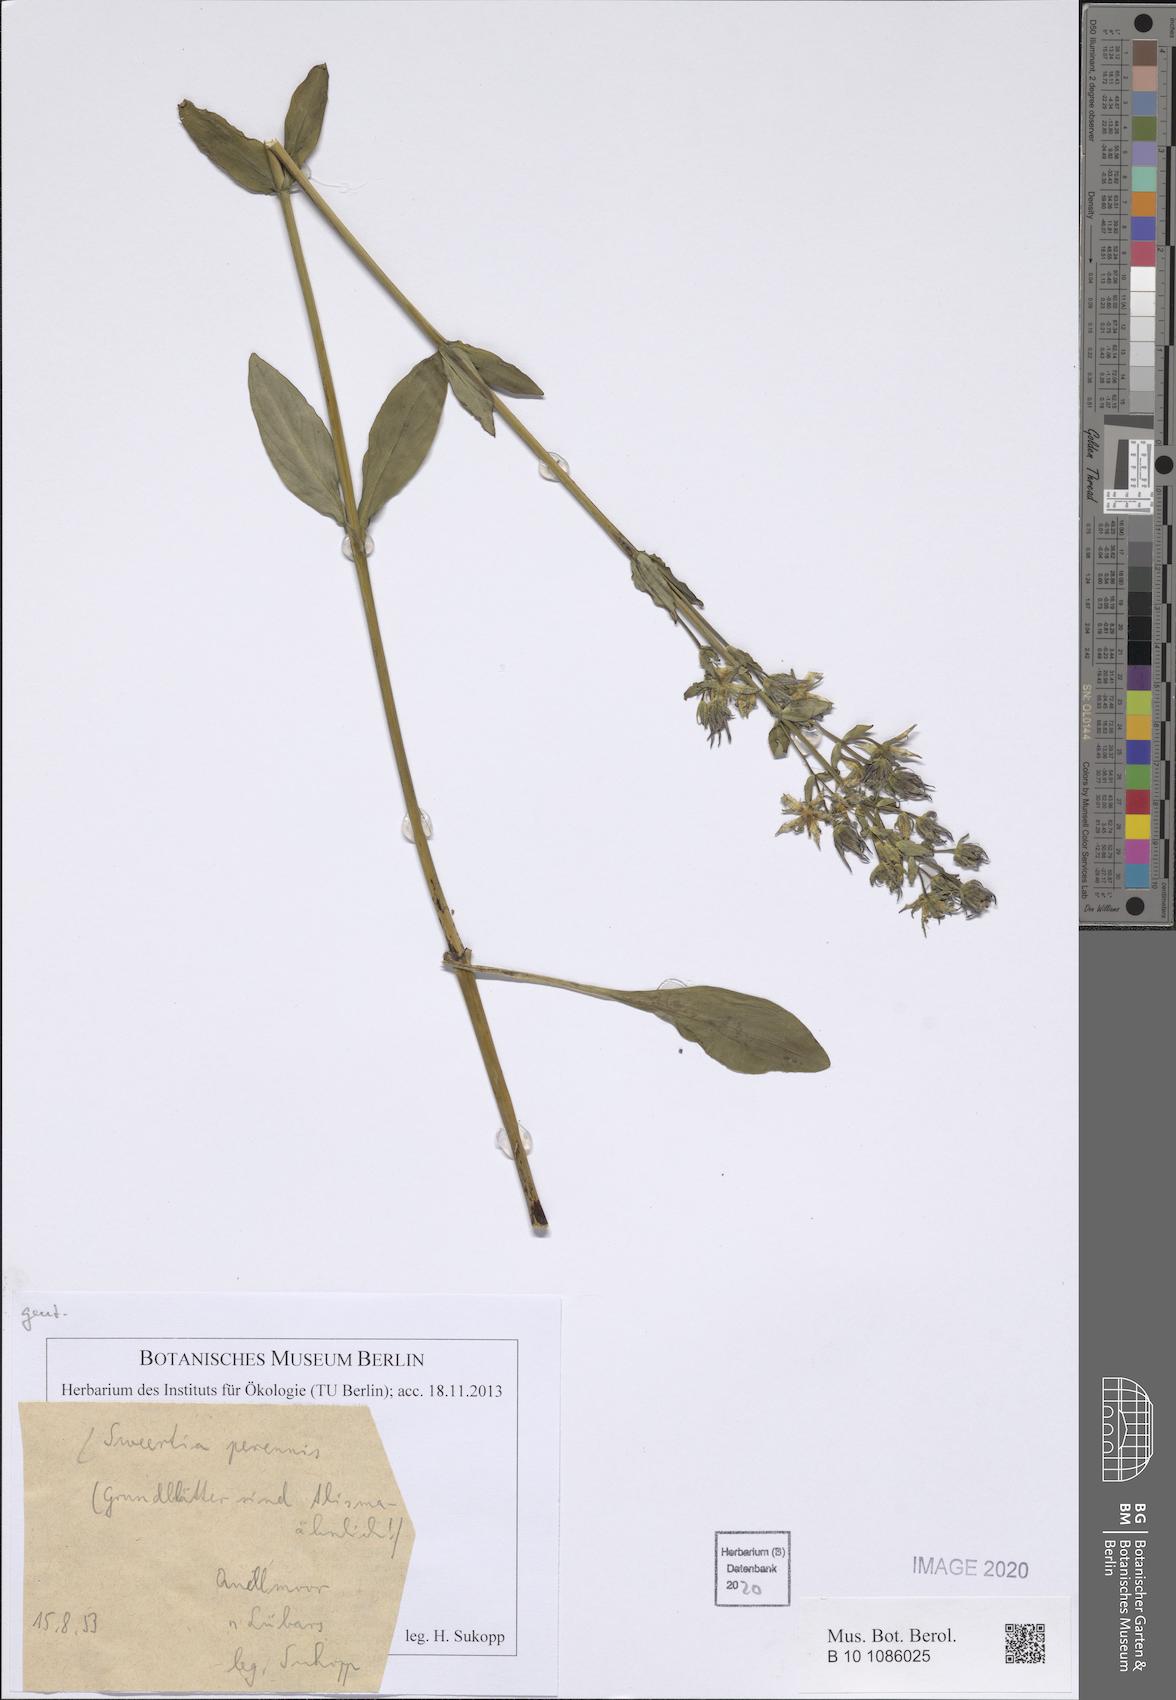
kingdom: Plantae
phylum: Tracheophyta
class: Magnoliopsida
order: Gentianales
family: Gentianaceae
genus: Swertia
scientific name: Swertia perennis
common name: Alpine bog swertia
